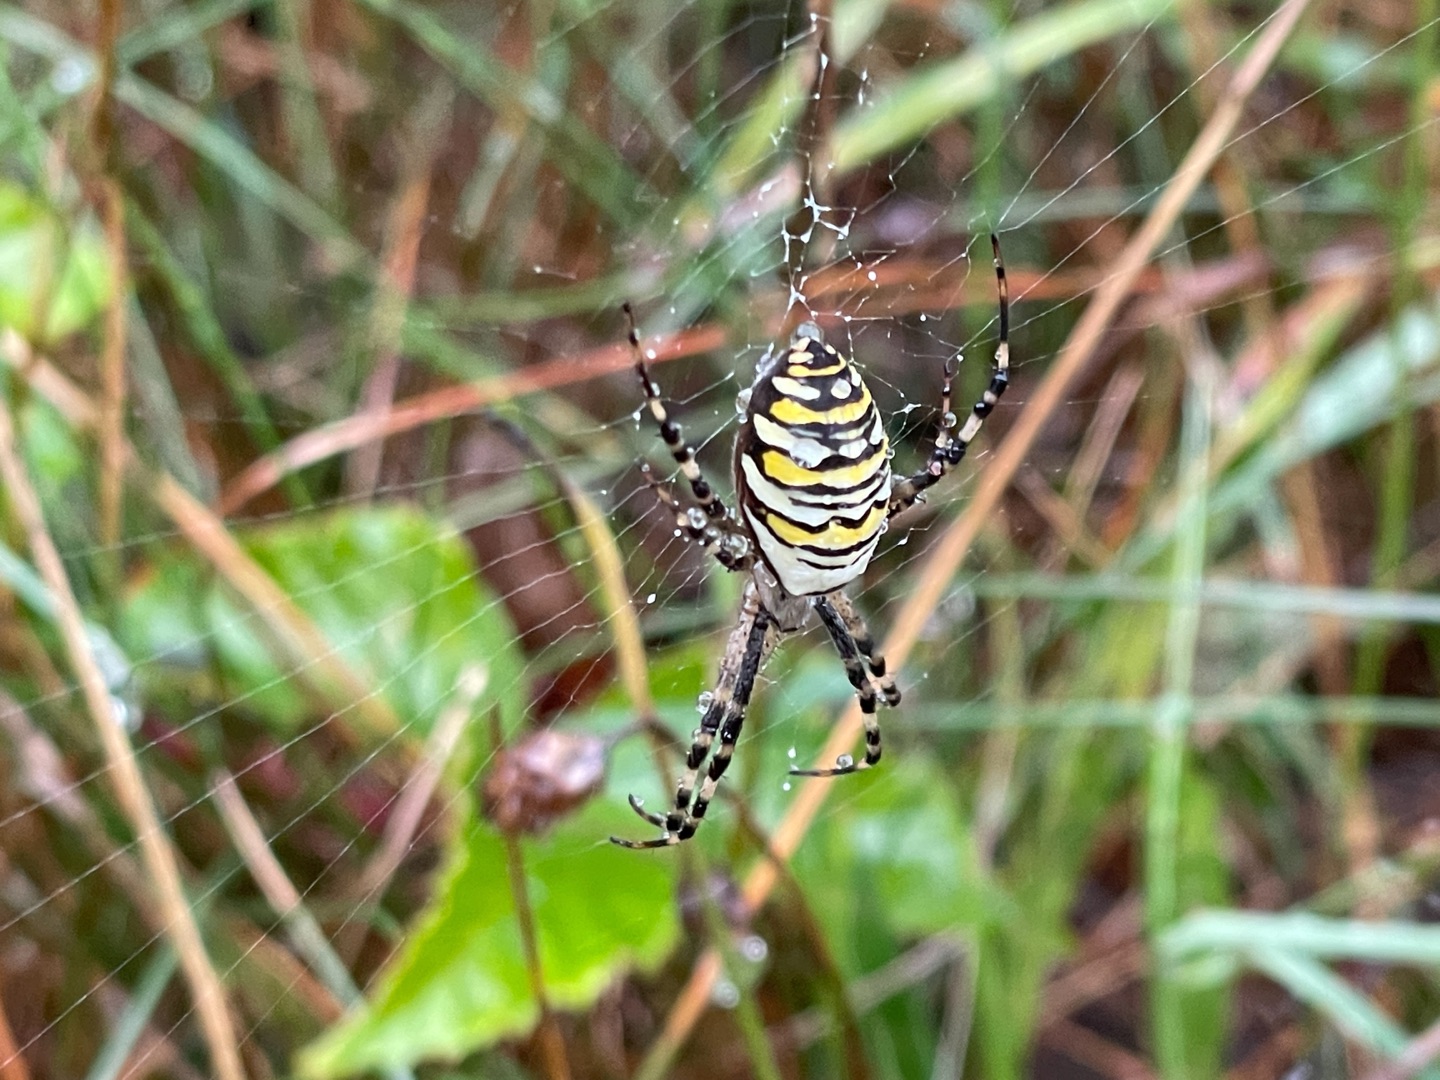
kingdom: Animalia
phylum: Arthropoda
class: Arachnida
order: Araneae
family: Araneidae
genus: Argiope
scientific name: Argiope bruennichi
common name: Hvepseedderkop
